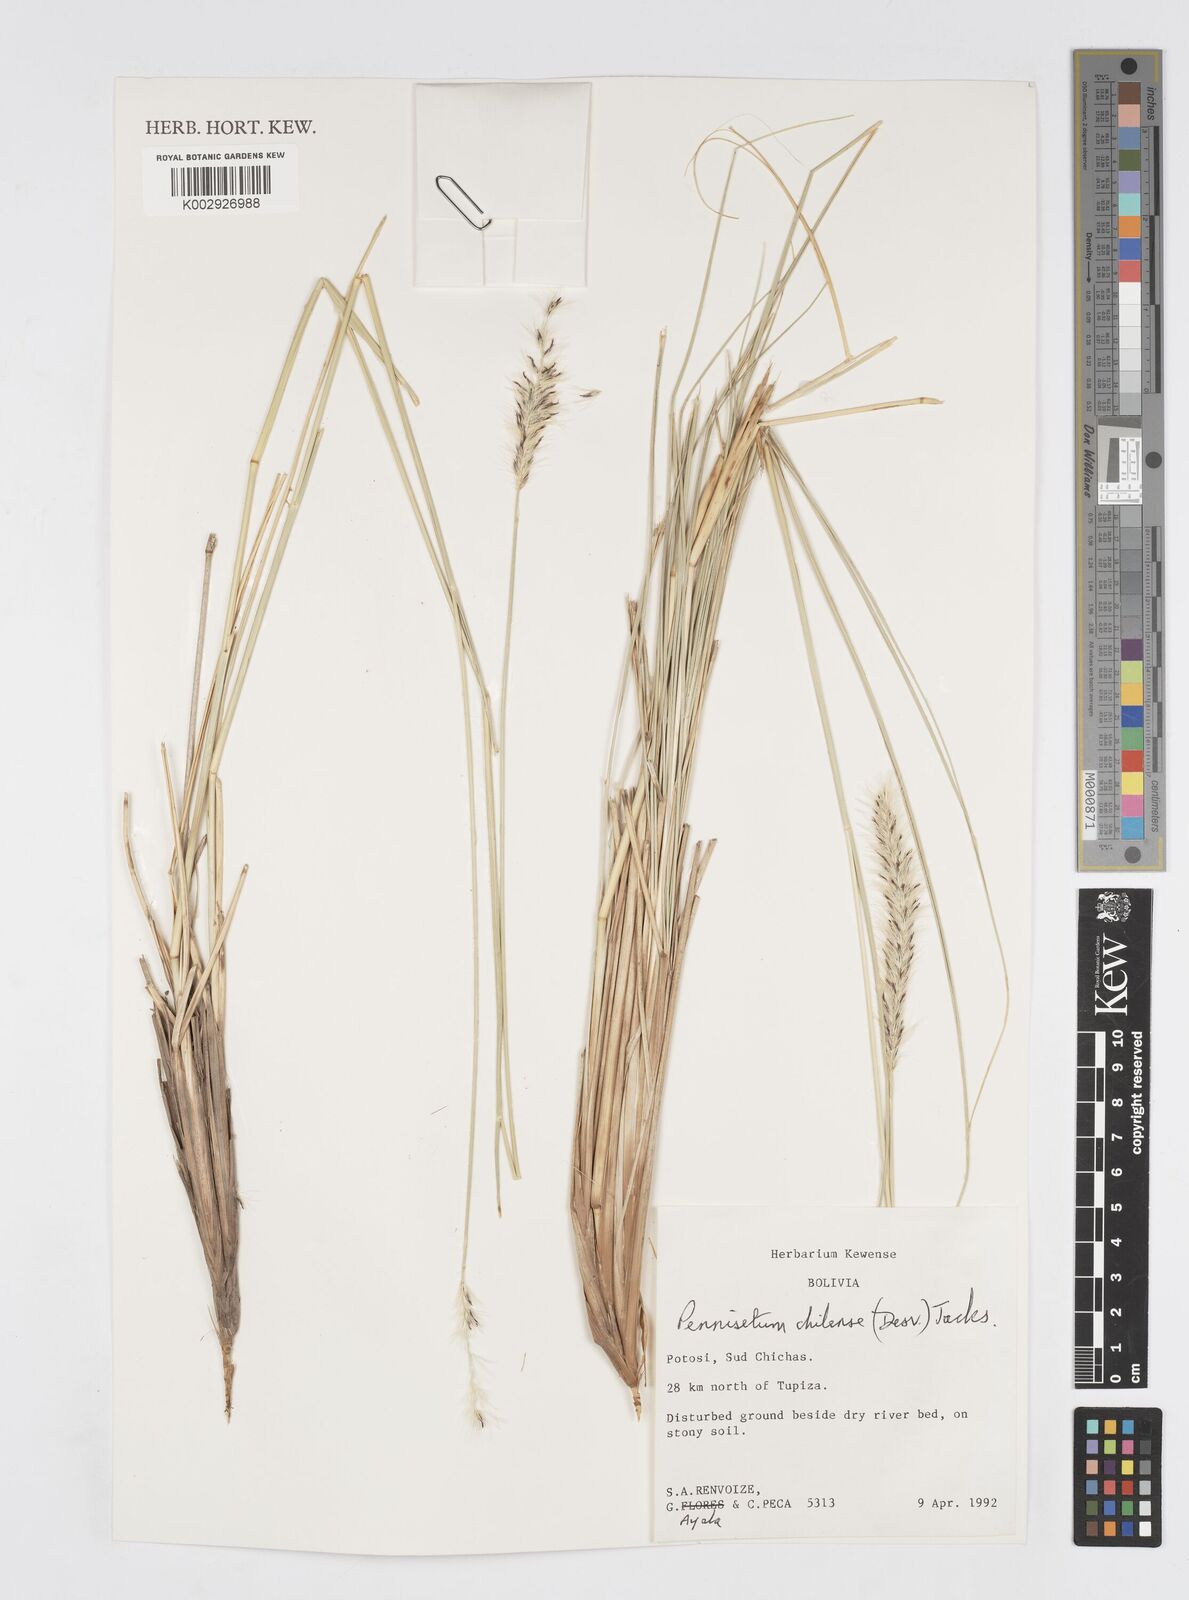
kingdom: Plantae
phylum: Tracheophyta
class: Liliopsida
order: Poales
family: Poaceae
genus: Cenchrus
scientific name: Cenchrus chilensis
